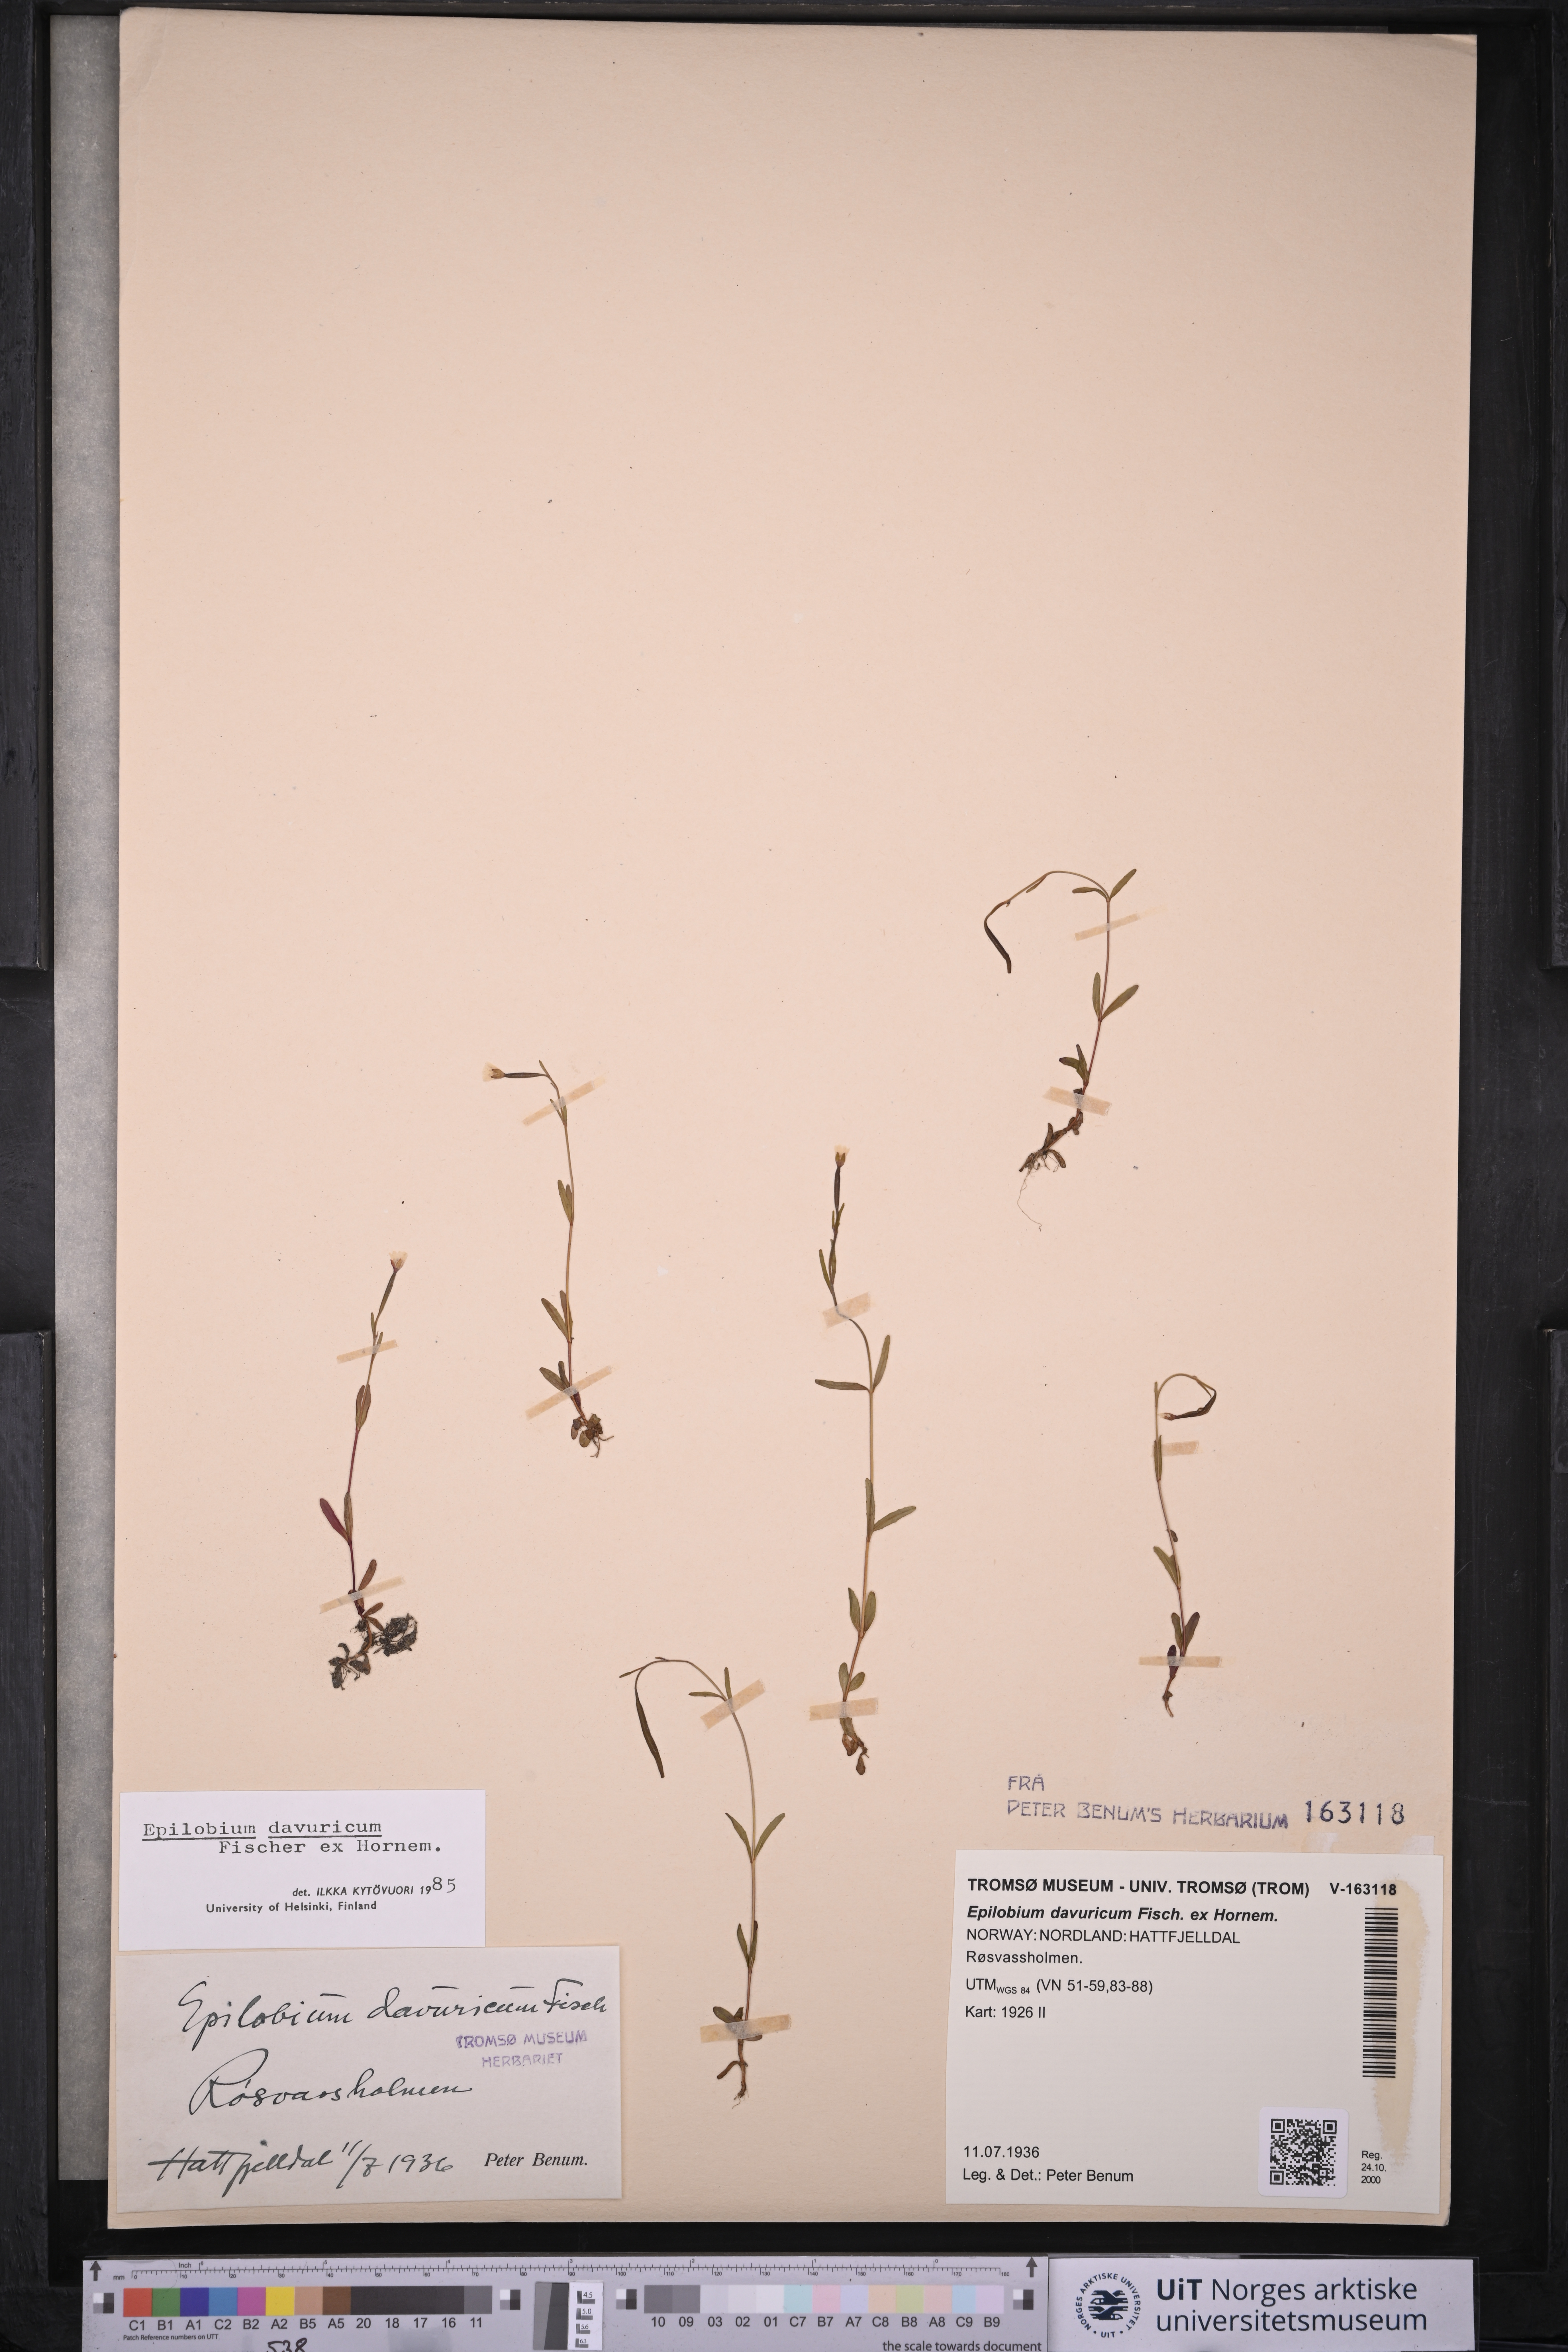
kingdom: Plantae
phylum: Tracheophyta
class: Magnoliopsida
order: Myrtales
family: Onagraceae
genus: Epilobium
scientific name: Epilobium davuricum
